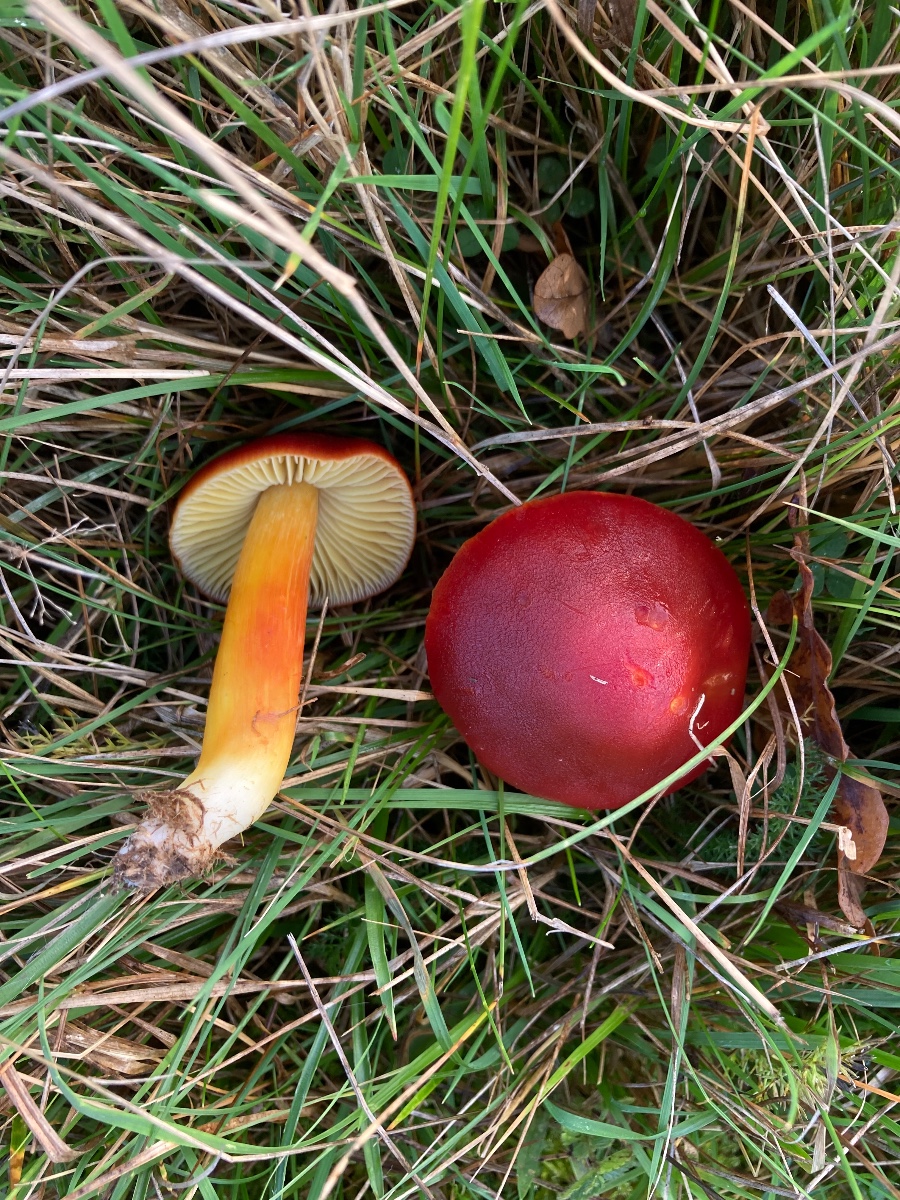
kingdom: Fungi
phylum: Basidiomycota
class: Agaricomycetes
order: Agaricales
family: Hygrophoraceae
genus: Hygrocybe
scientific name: Hygrocybe punicea
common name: skarlagen-vokshat
